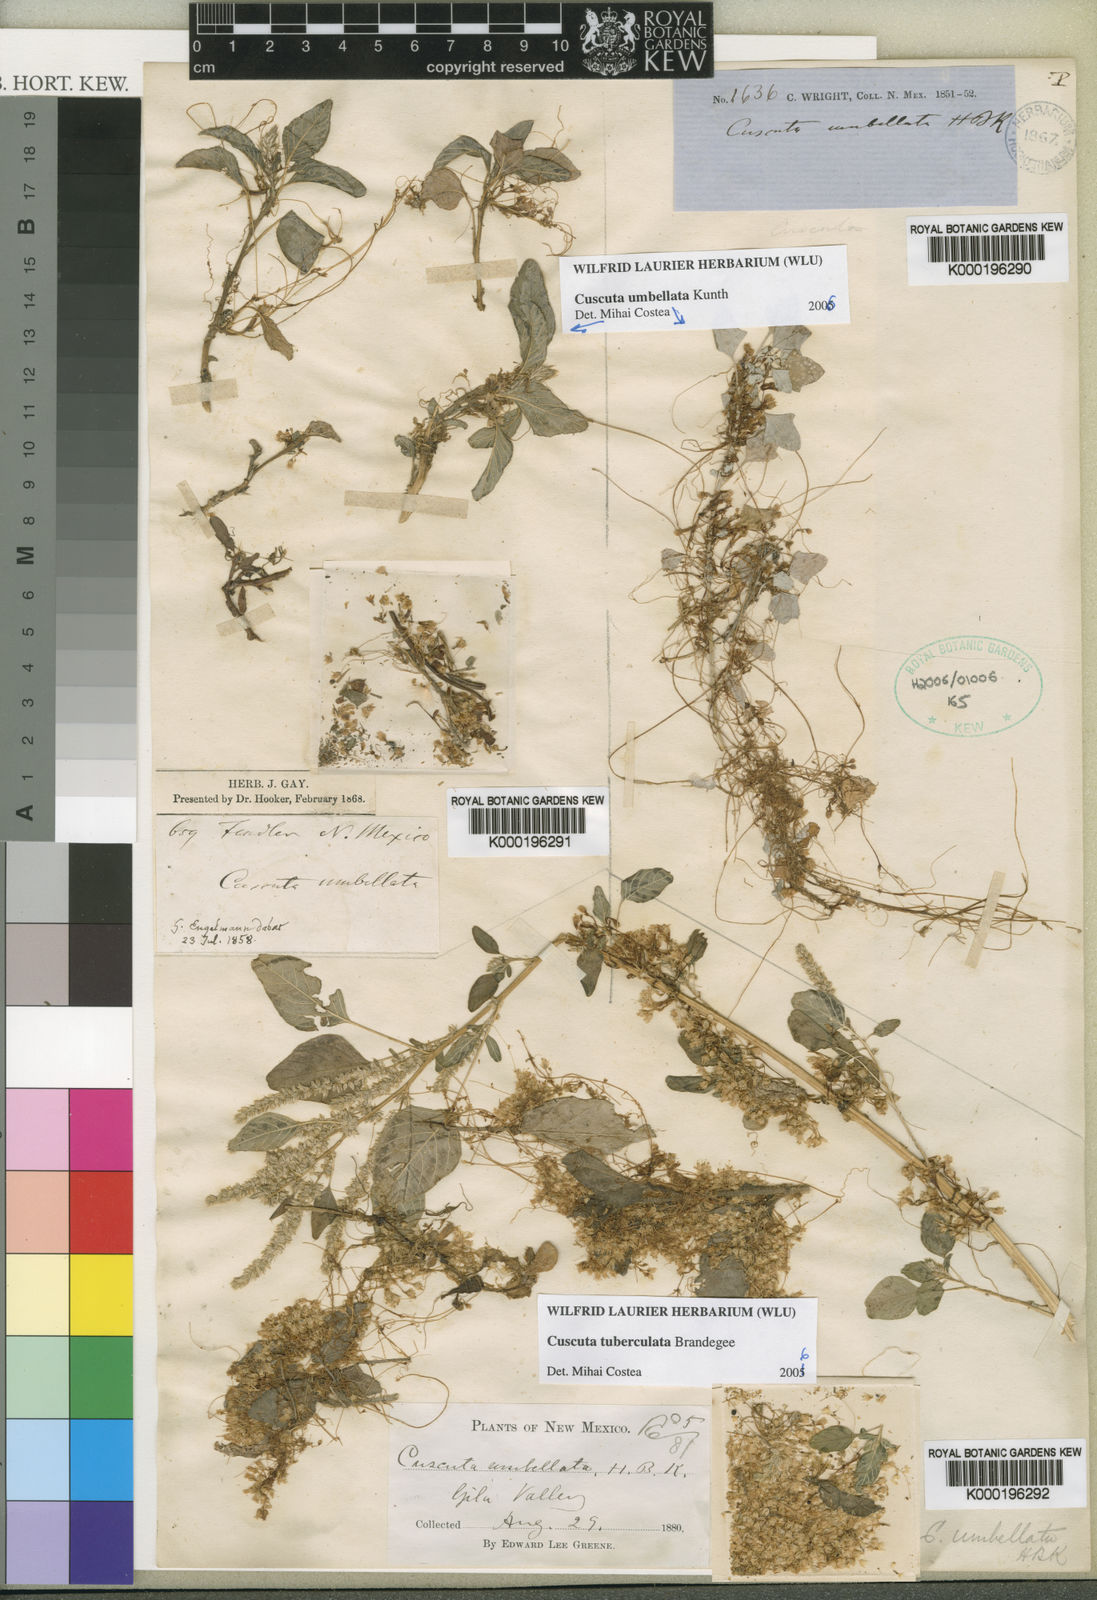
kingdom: Plantae
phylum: Tracheophyta
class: Magnoliopsida
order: Solanales
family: Convolvulaceae
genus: Cuscuta
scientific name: Cuscuta umbellata
